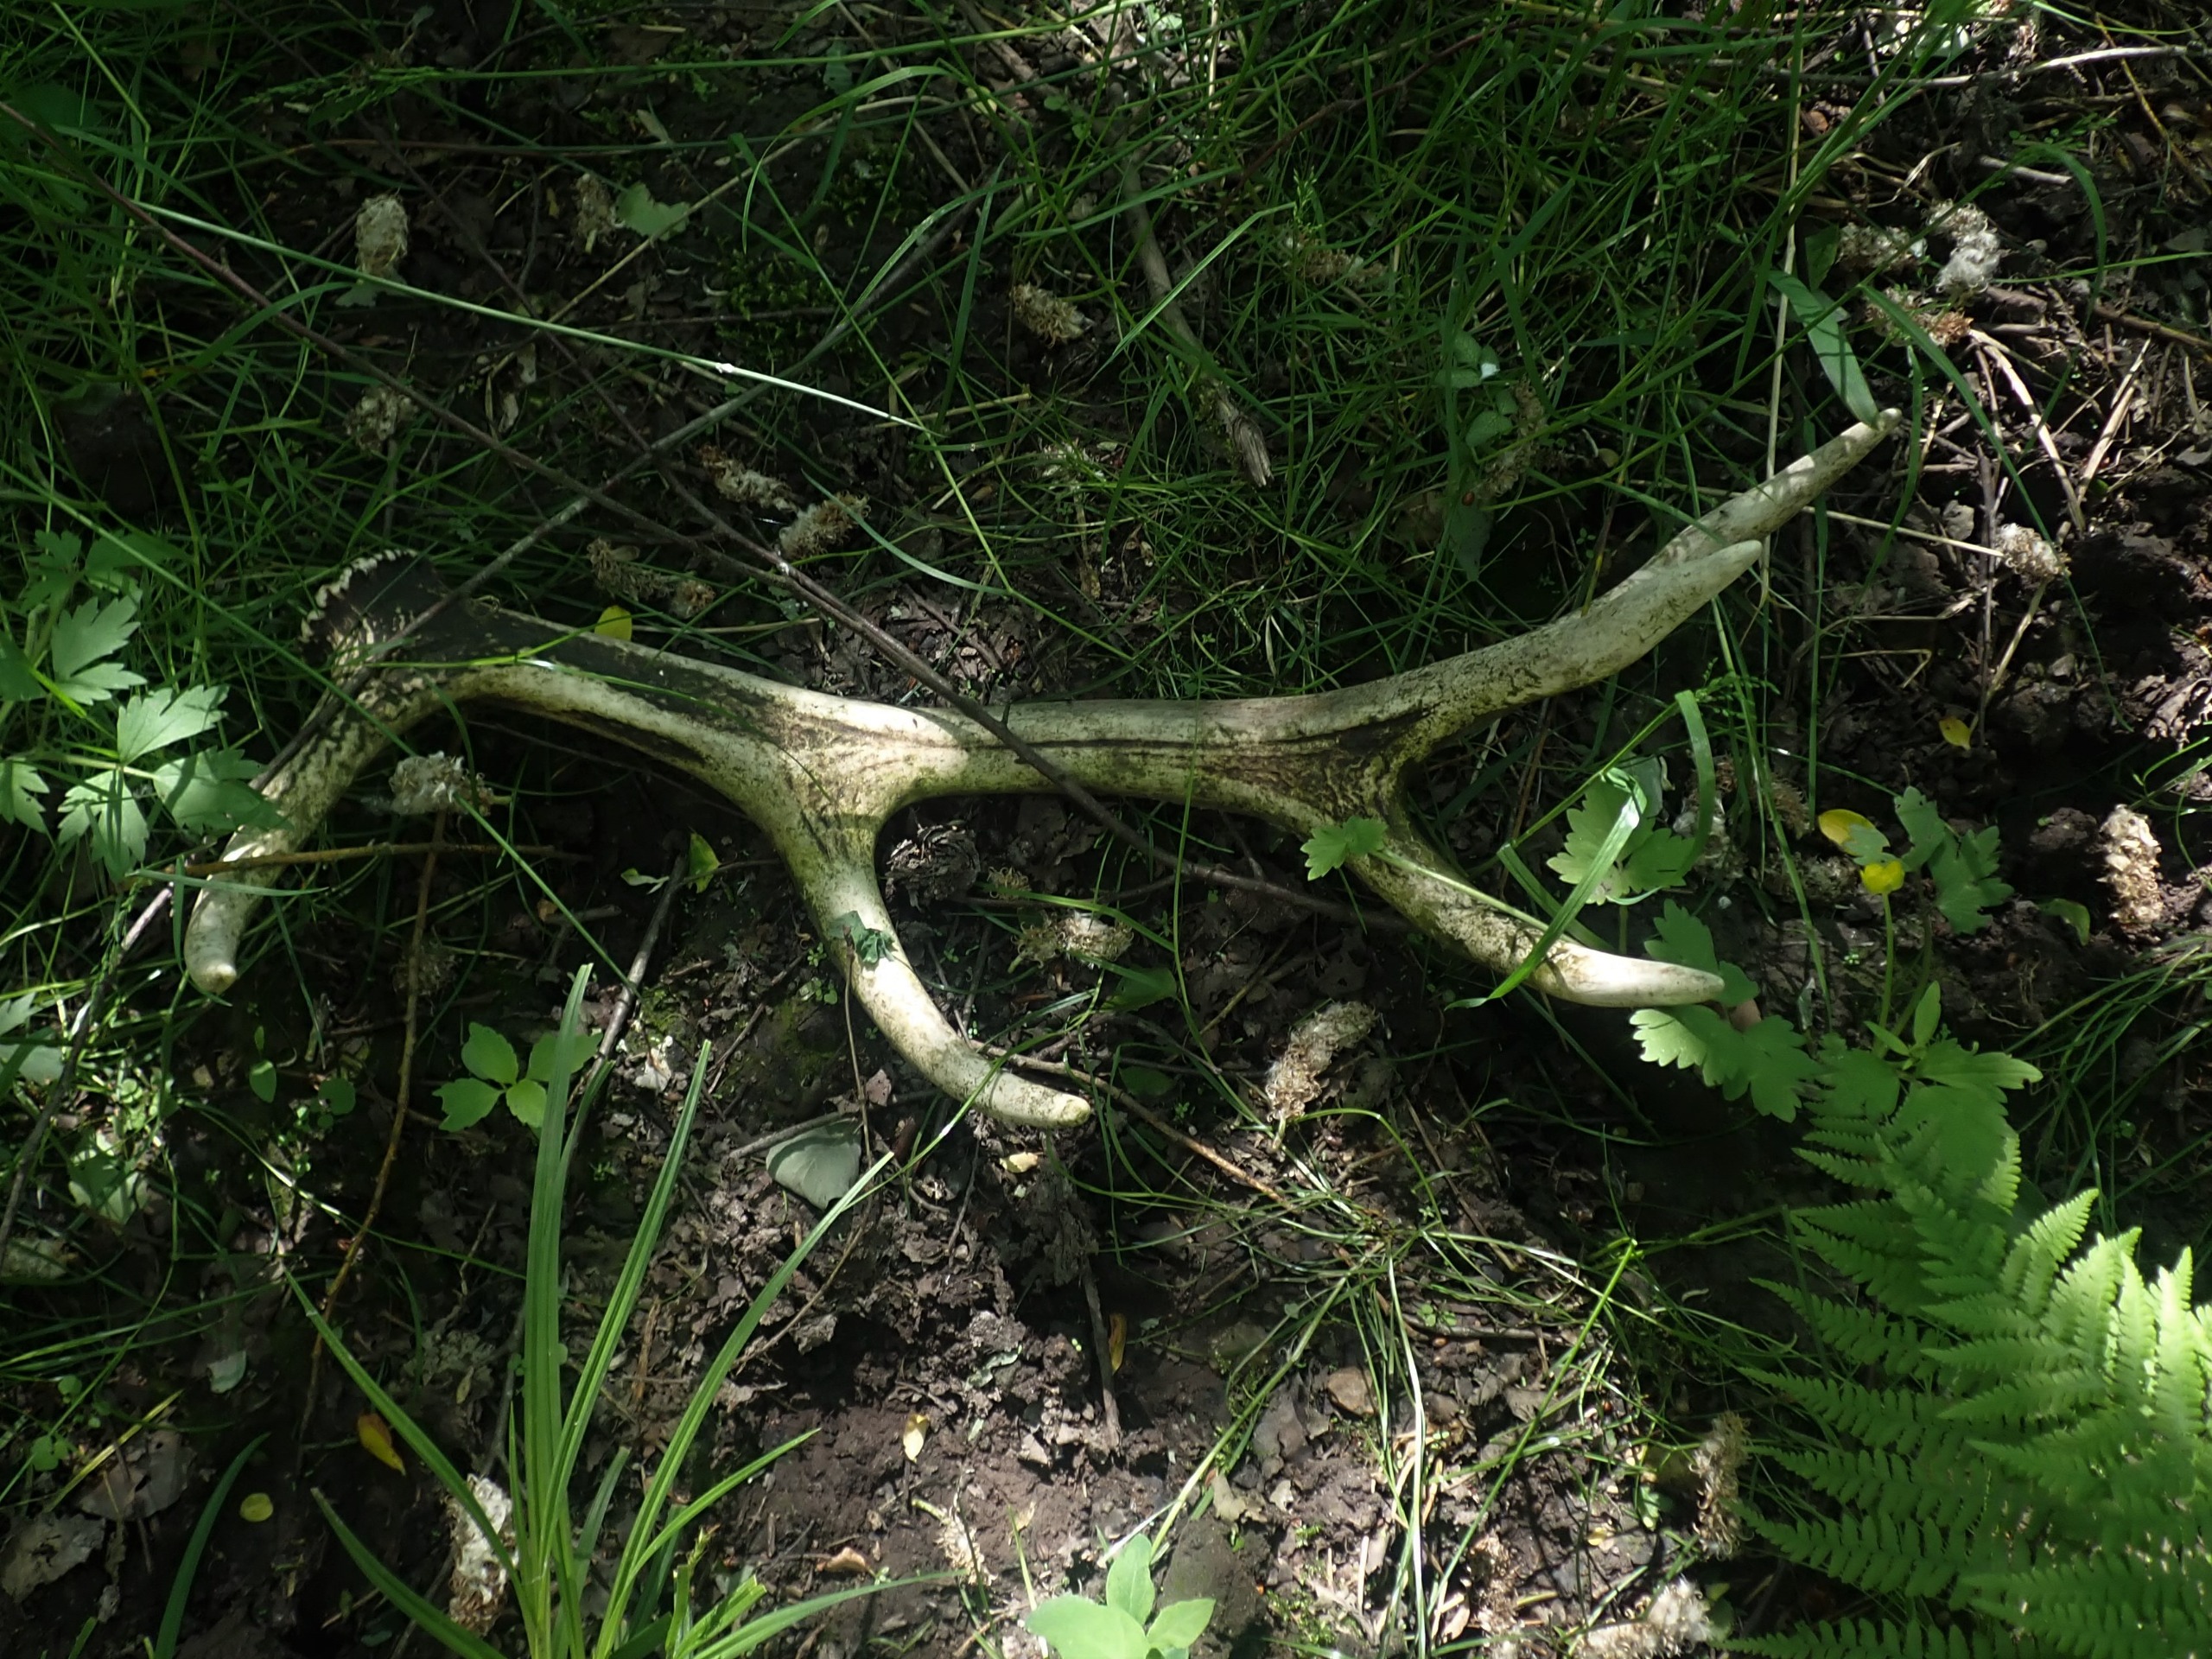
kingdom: Animalia
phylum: Chordata
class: Mammalia
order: Artiodactyla
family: Cervidae
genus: Cervus
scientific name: Cervus elaphus
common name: Krondyr
